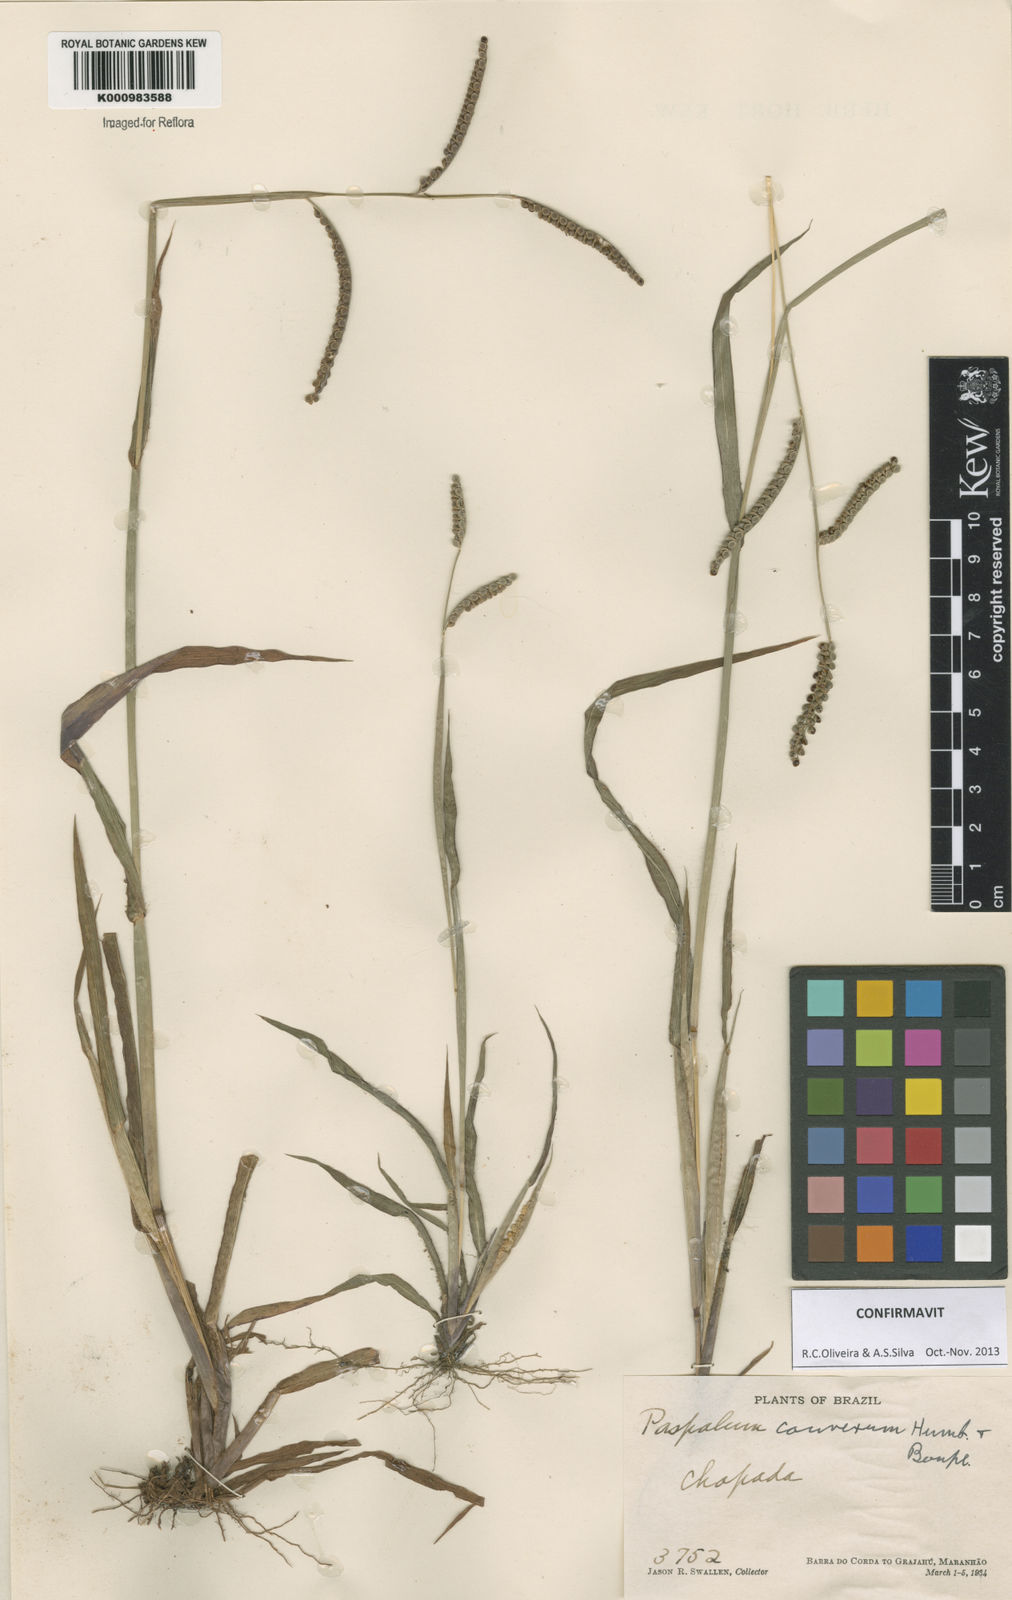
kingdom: Plantae
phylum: Tracheophyta
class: Liliopsida
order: Poales
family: Poaceae
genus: Paspalum
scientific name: Paspalum
